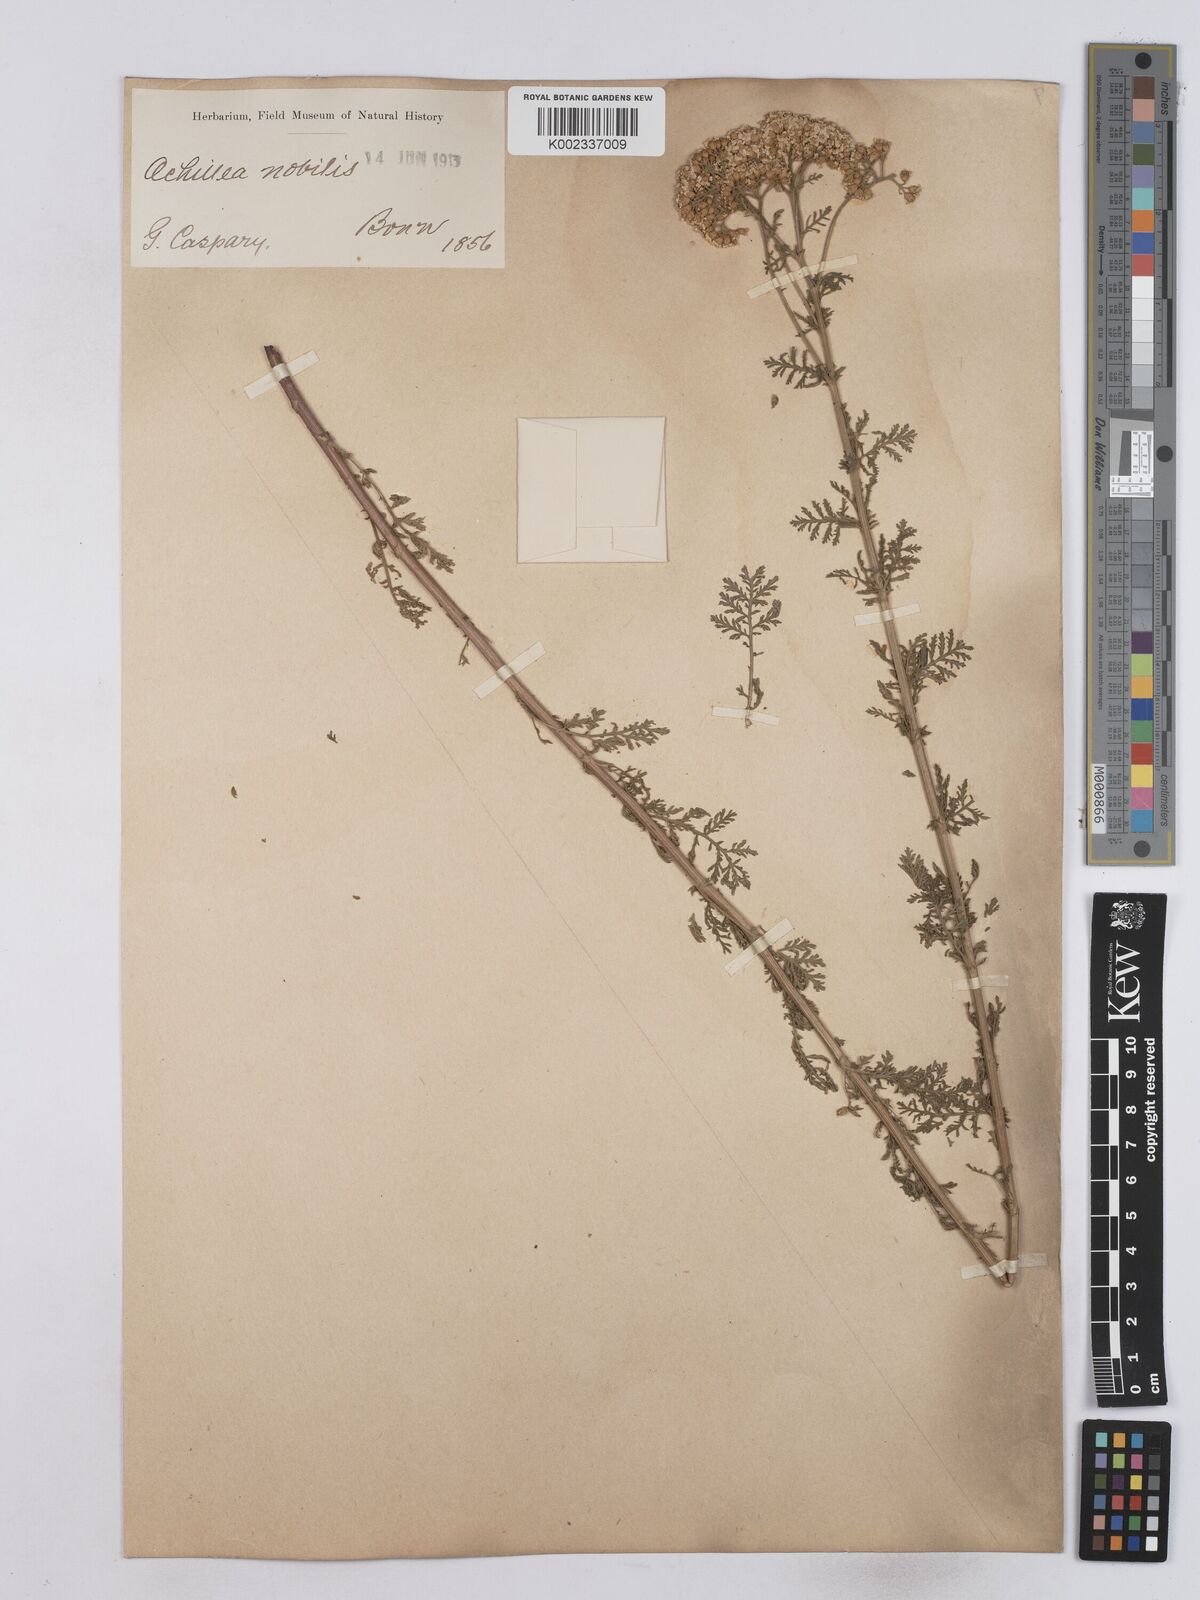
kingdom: Plantae
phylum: Tracheophyta
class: Magnoliopsida
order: Asterales
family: Asteraceae
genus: Achillea
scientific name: Achillea nobilis
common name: Noble yarrow
